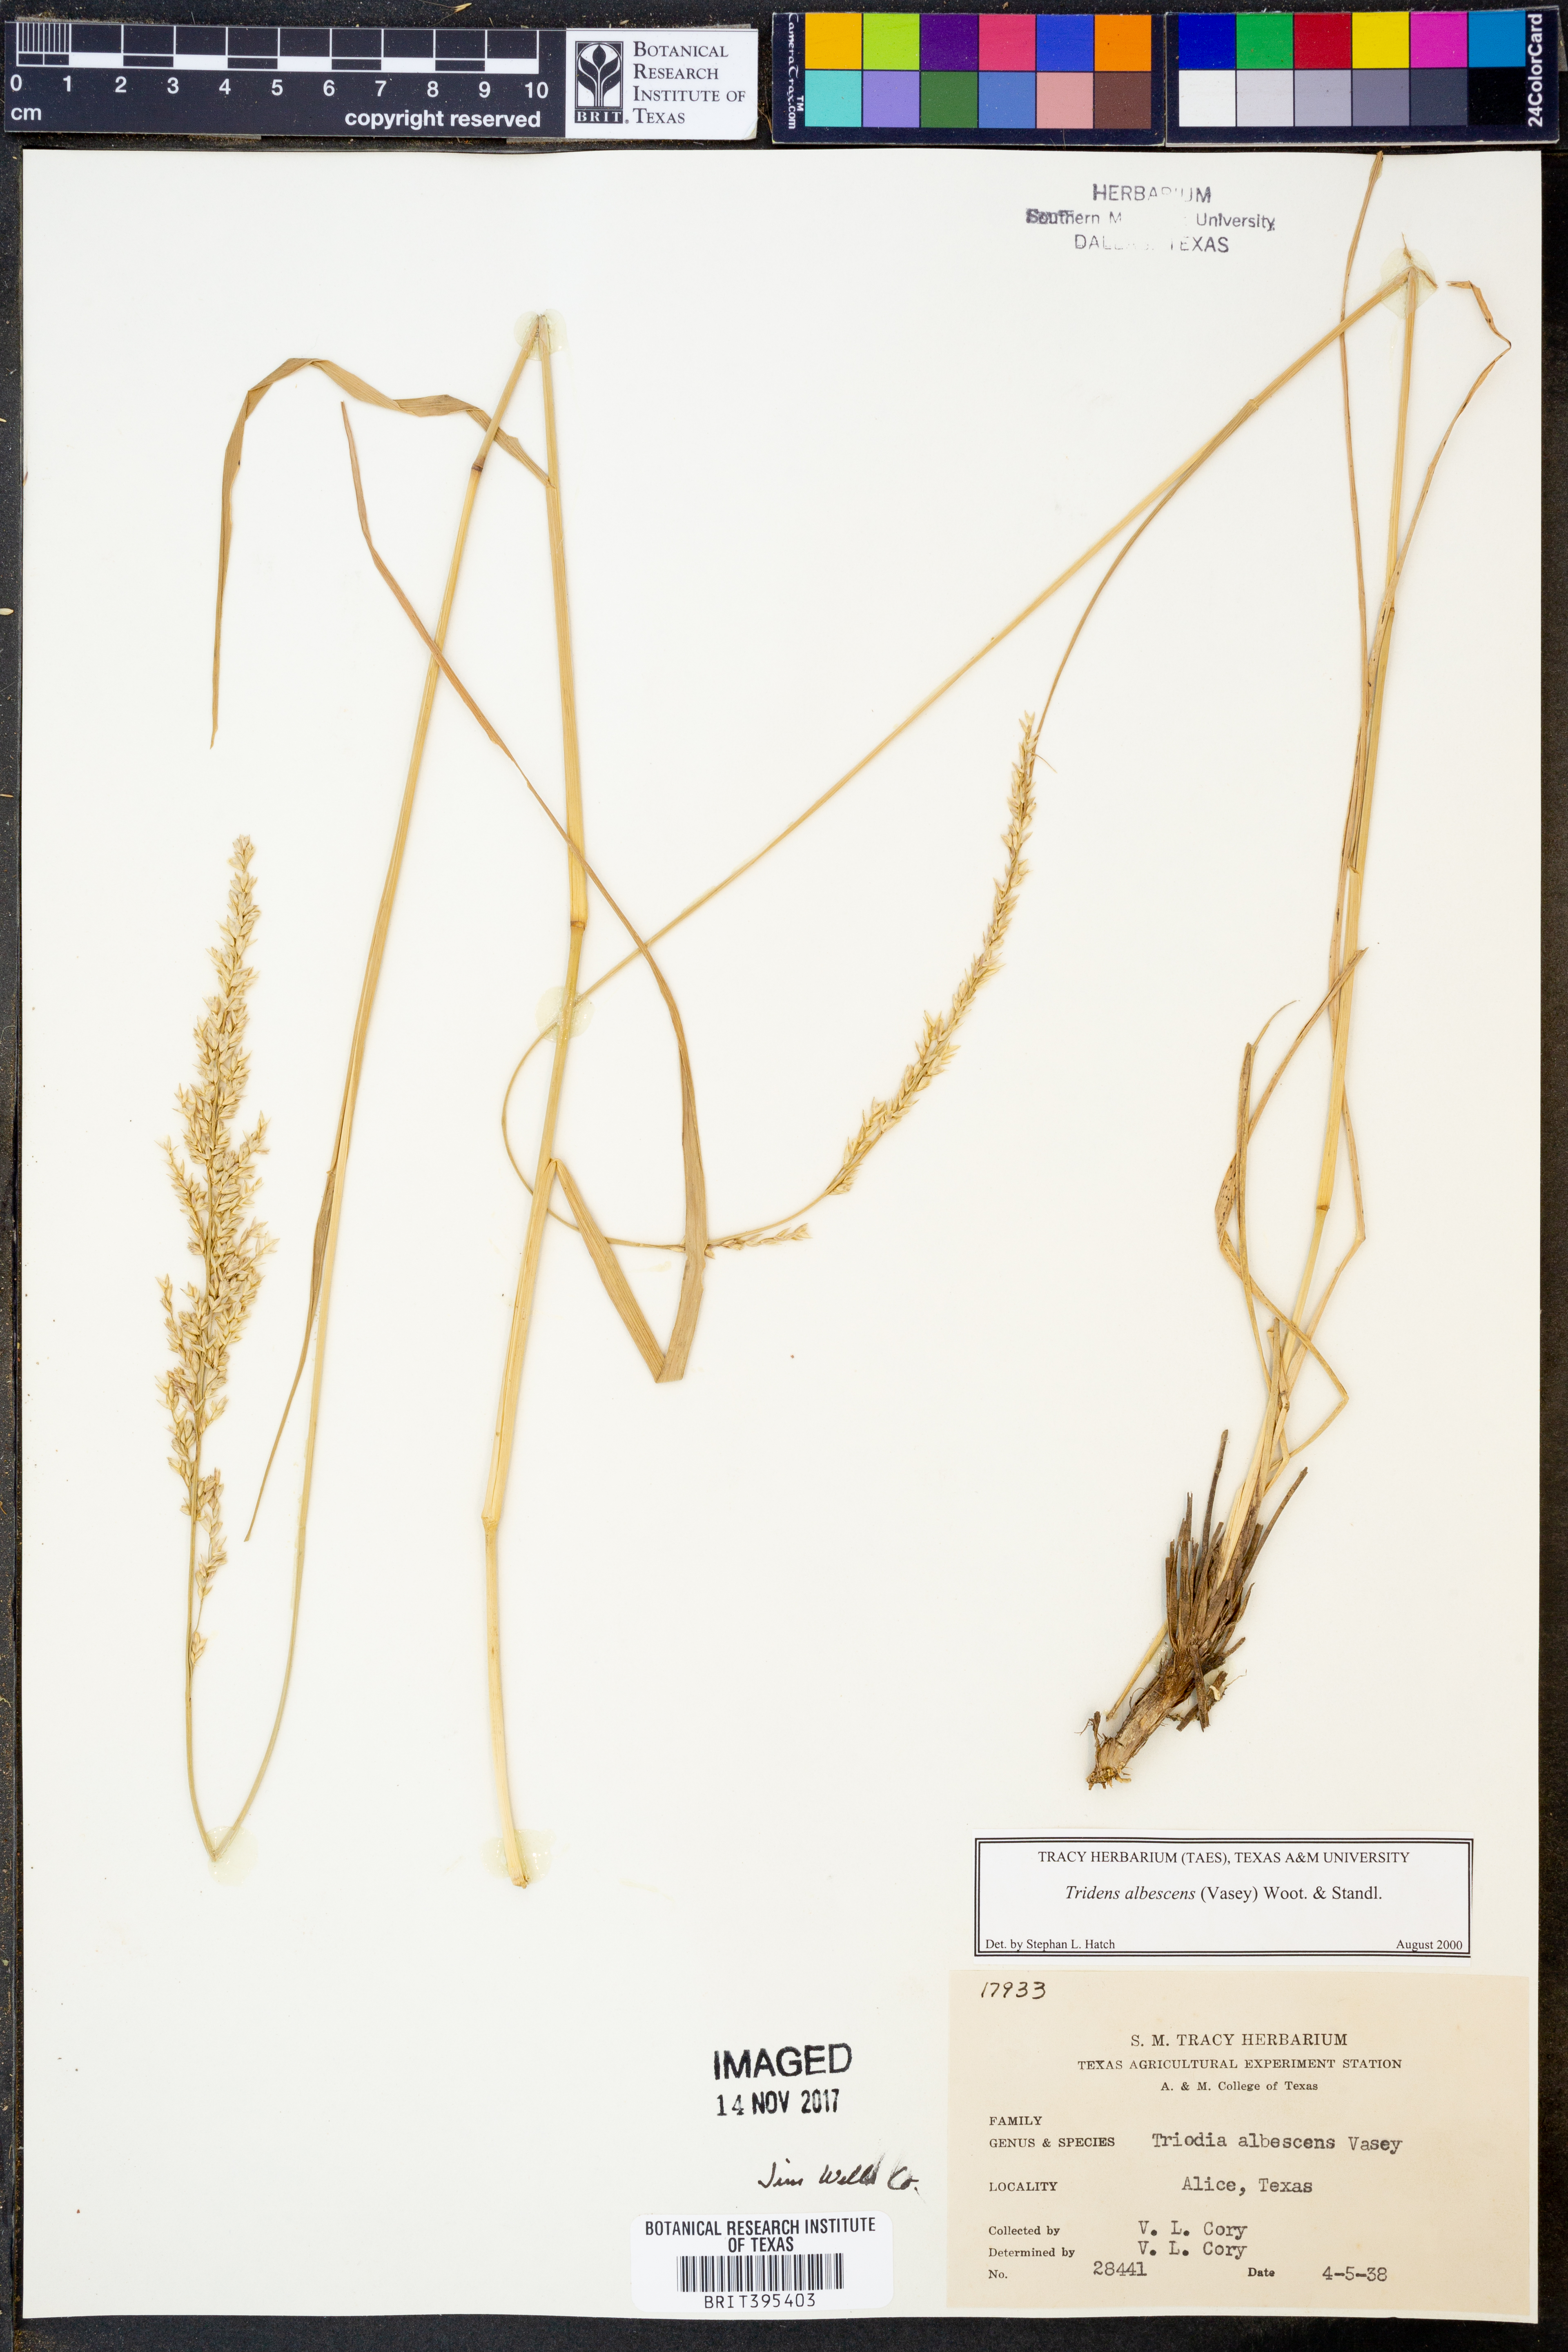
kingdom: Plantae
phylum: Tracheophyta
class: Liliopsida
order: Poales
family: Poaceae
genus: Tridens
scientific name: Tridens albescens
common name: White tridens
